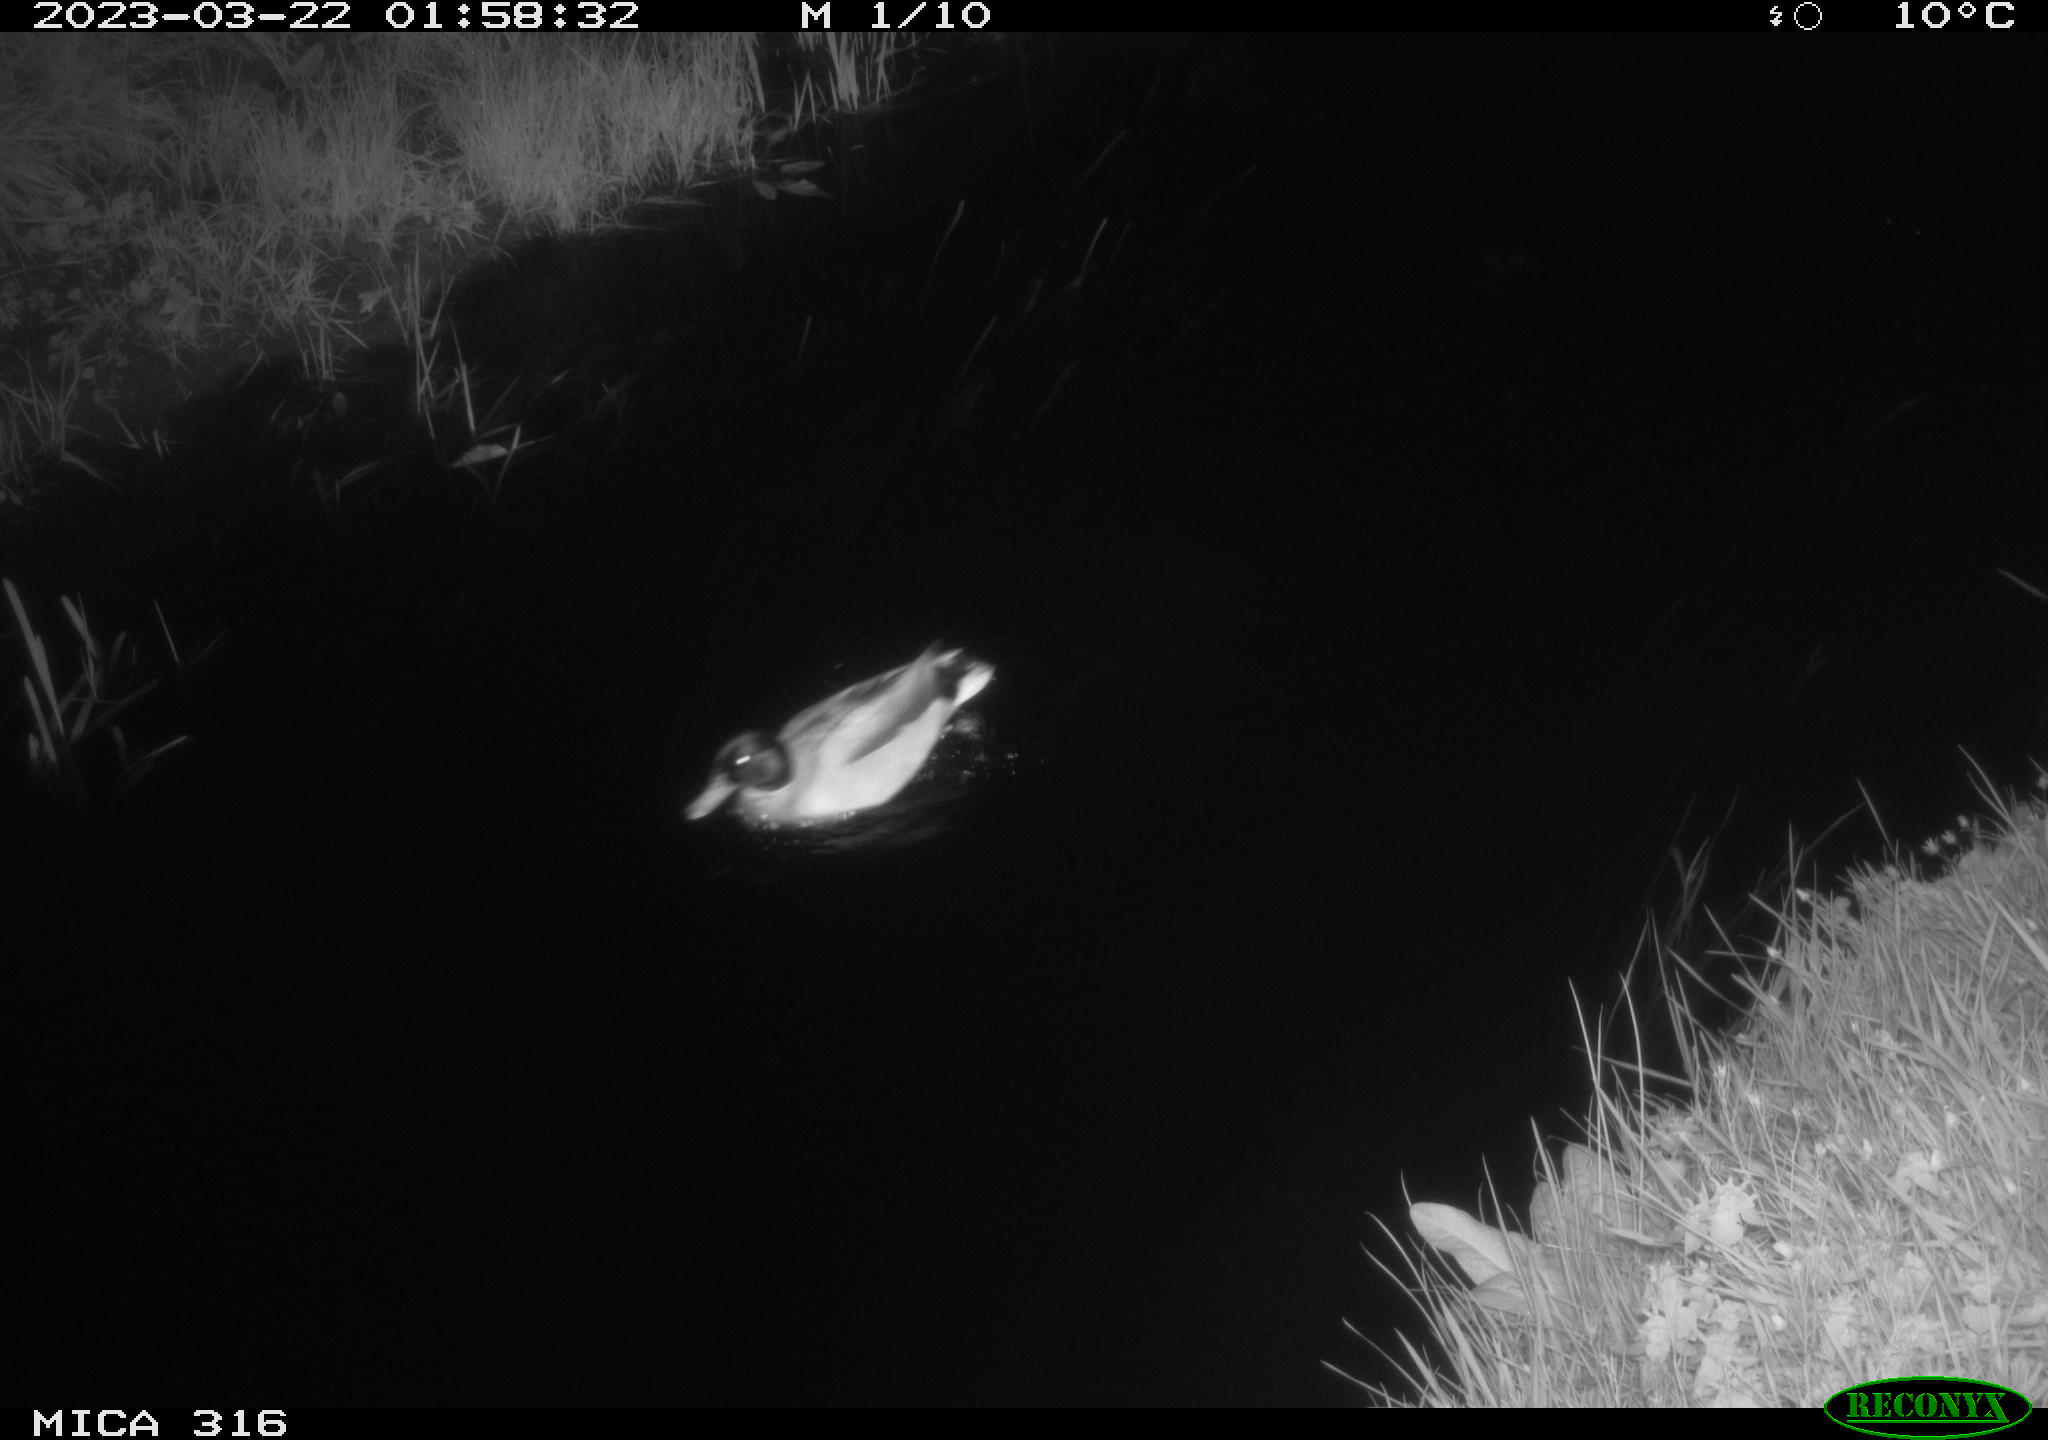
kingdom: Animalia
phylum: Chordata
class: Aves
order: Anseriformes
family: Anatidae
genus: Anas
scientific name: Anas
